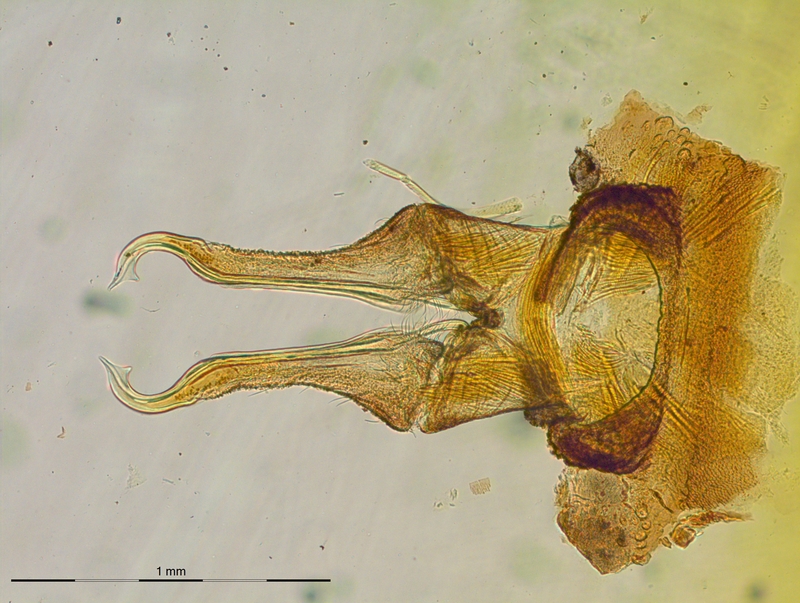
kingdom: Animalia
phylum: Arthropoda
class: Diplopoda
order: Polydesmida
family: Chelodesmidae
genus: Macellolophus
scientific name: Macellolophus rubromarginatus
